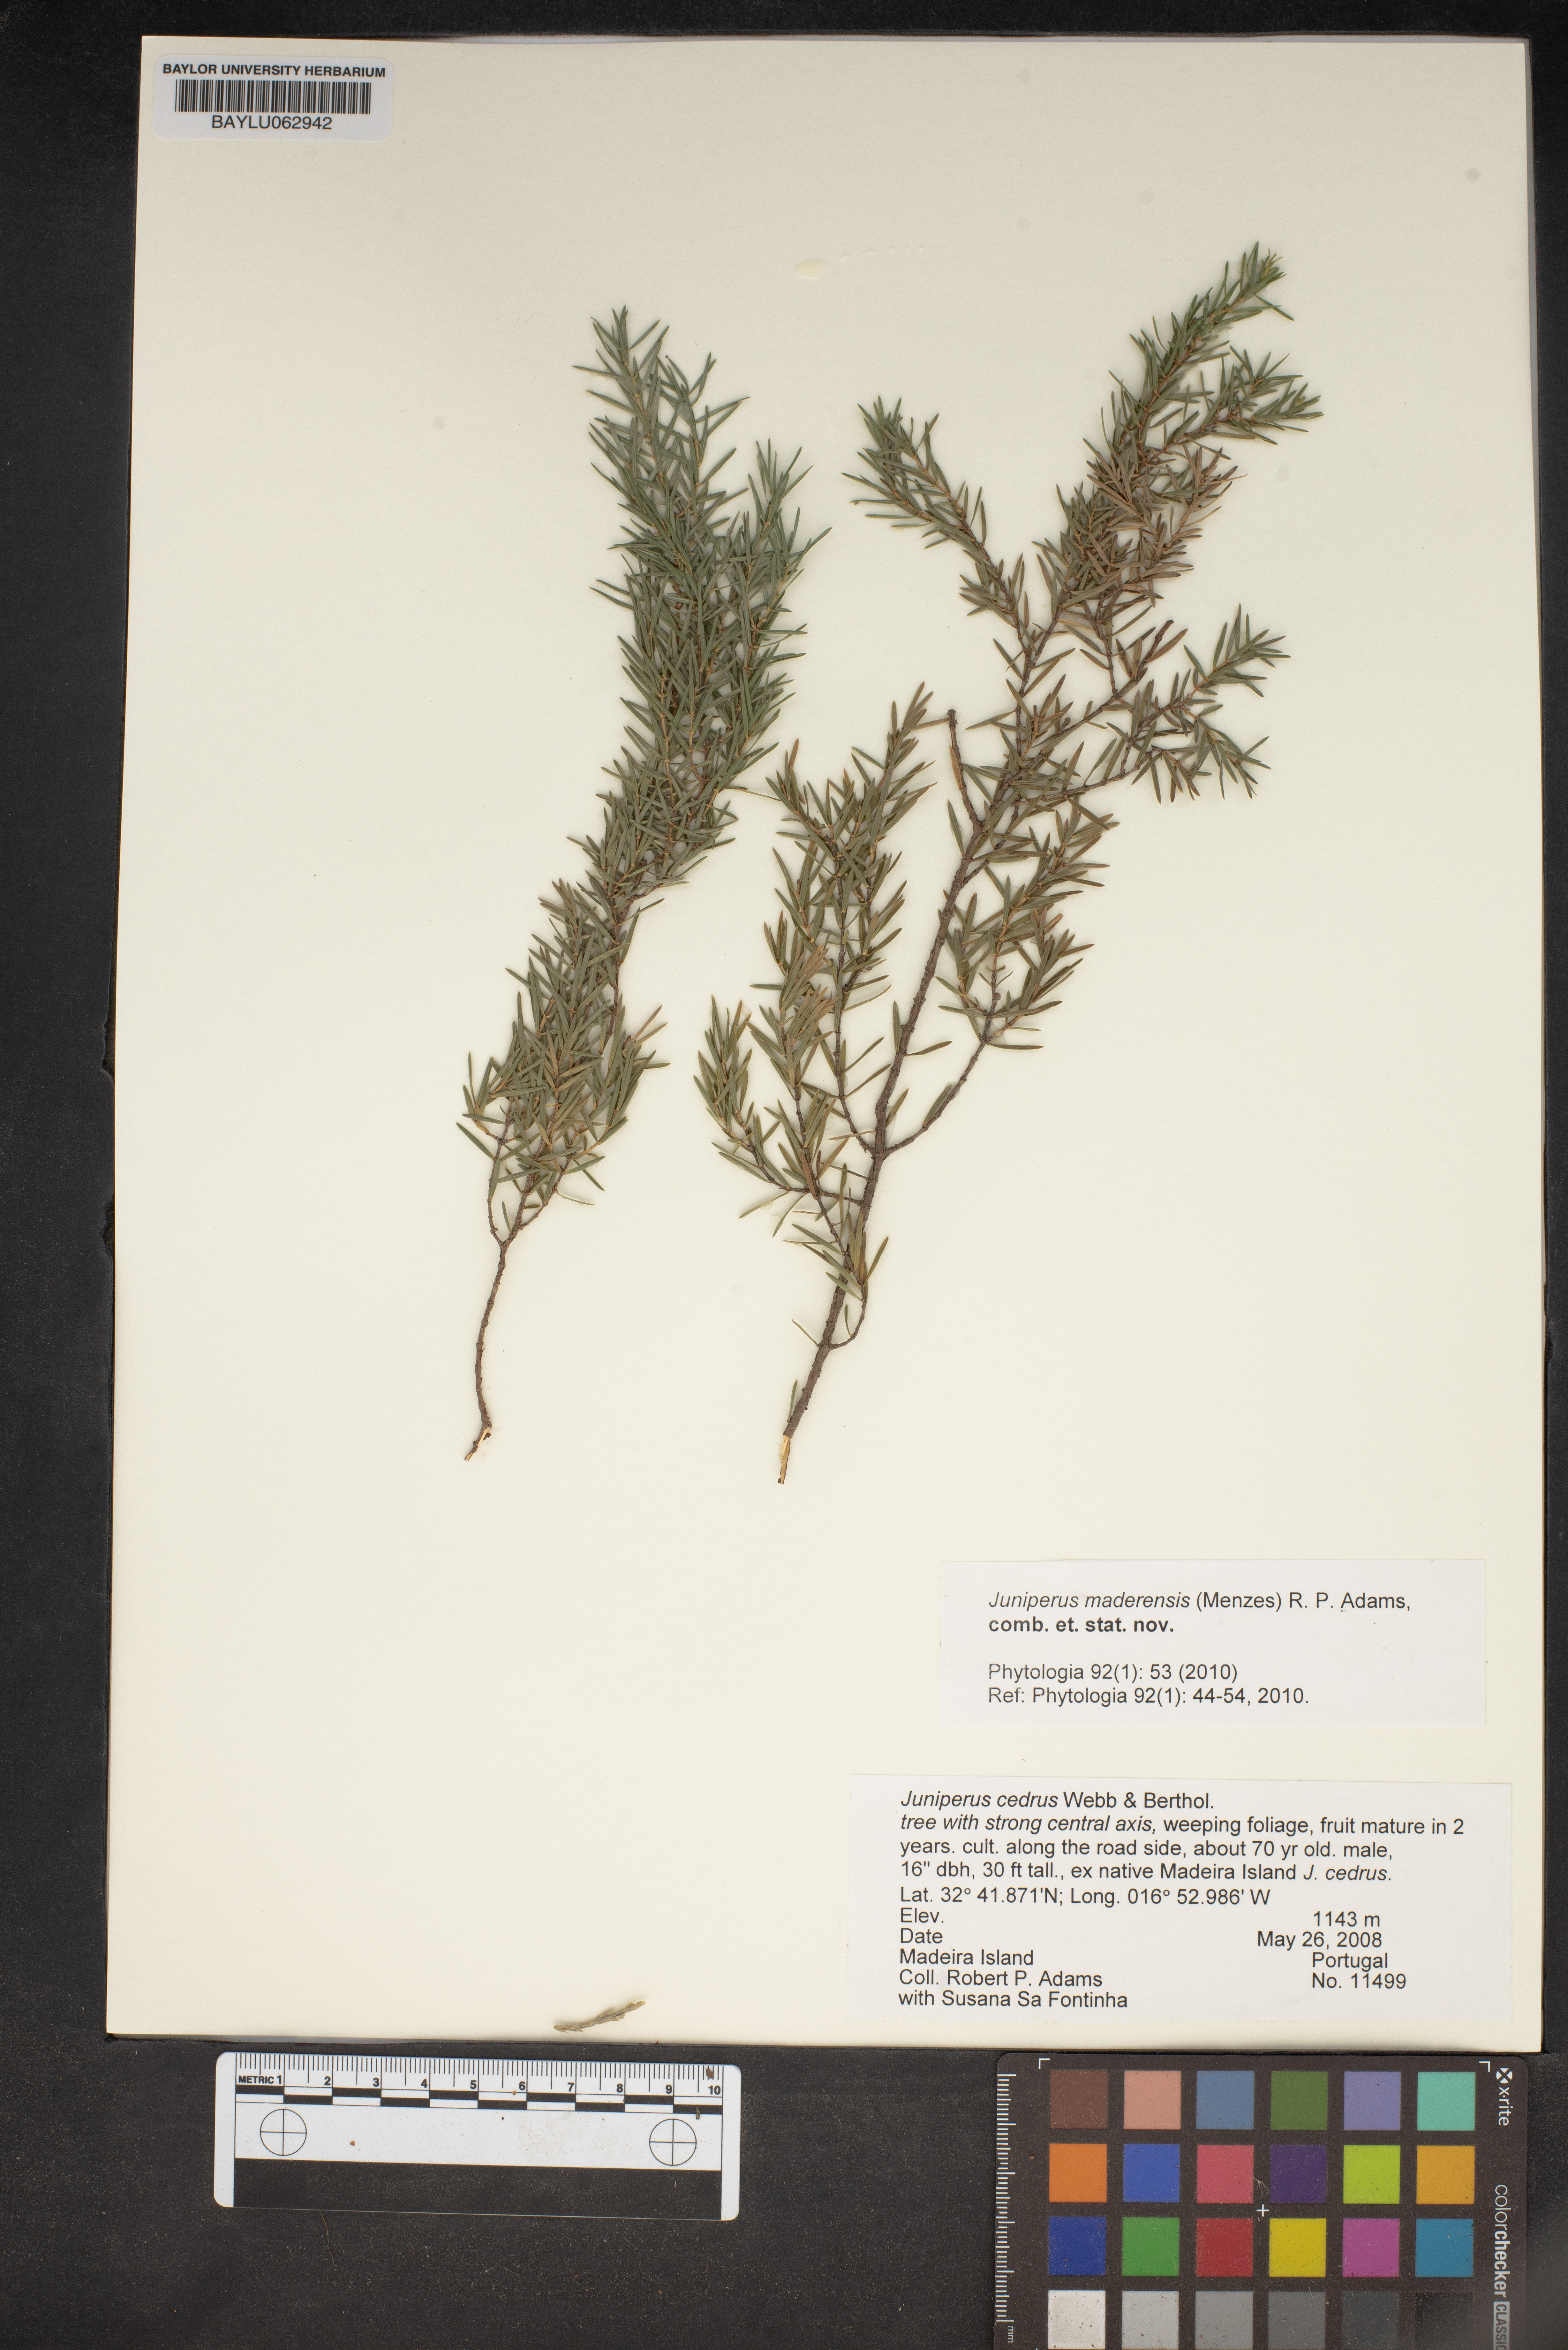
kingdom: Plantae
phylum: Tracheophyta
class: Pinopsida
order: Pinales
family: Cupressaceae
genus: Juniperus
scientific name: Juniperus cedrus
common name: Canary islands juniper
